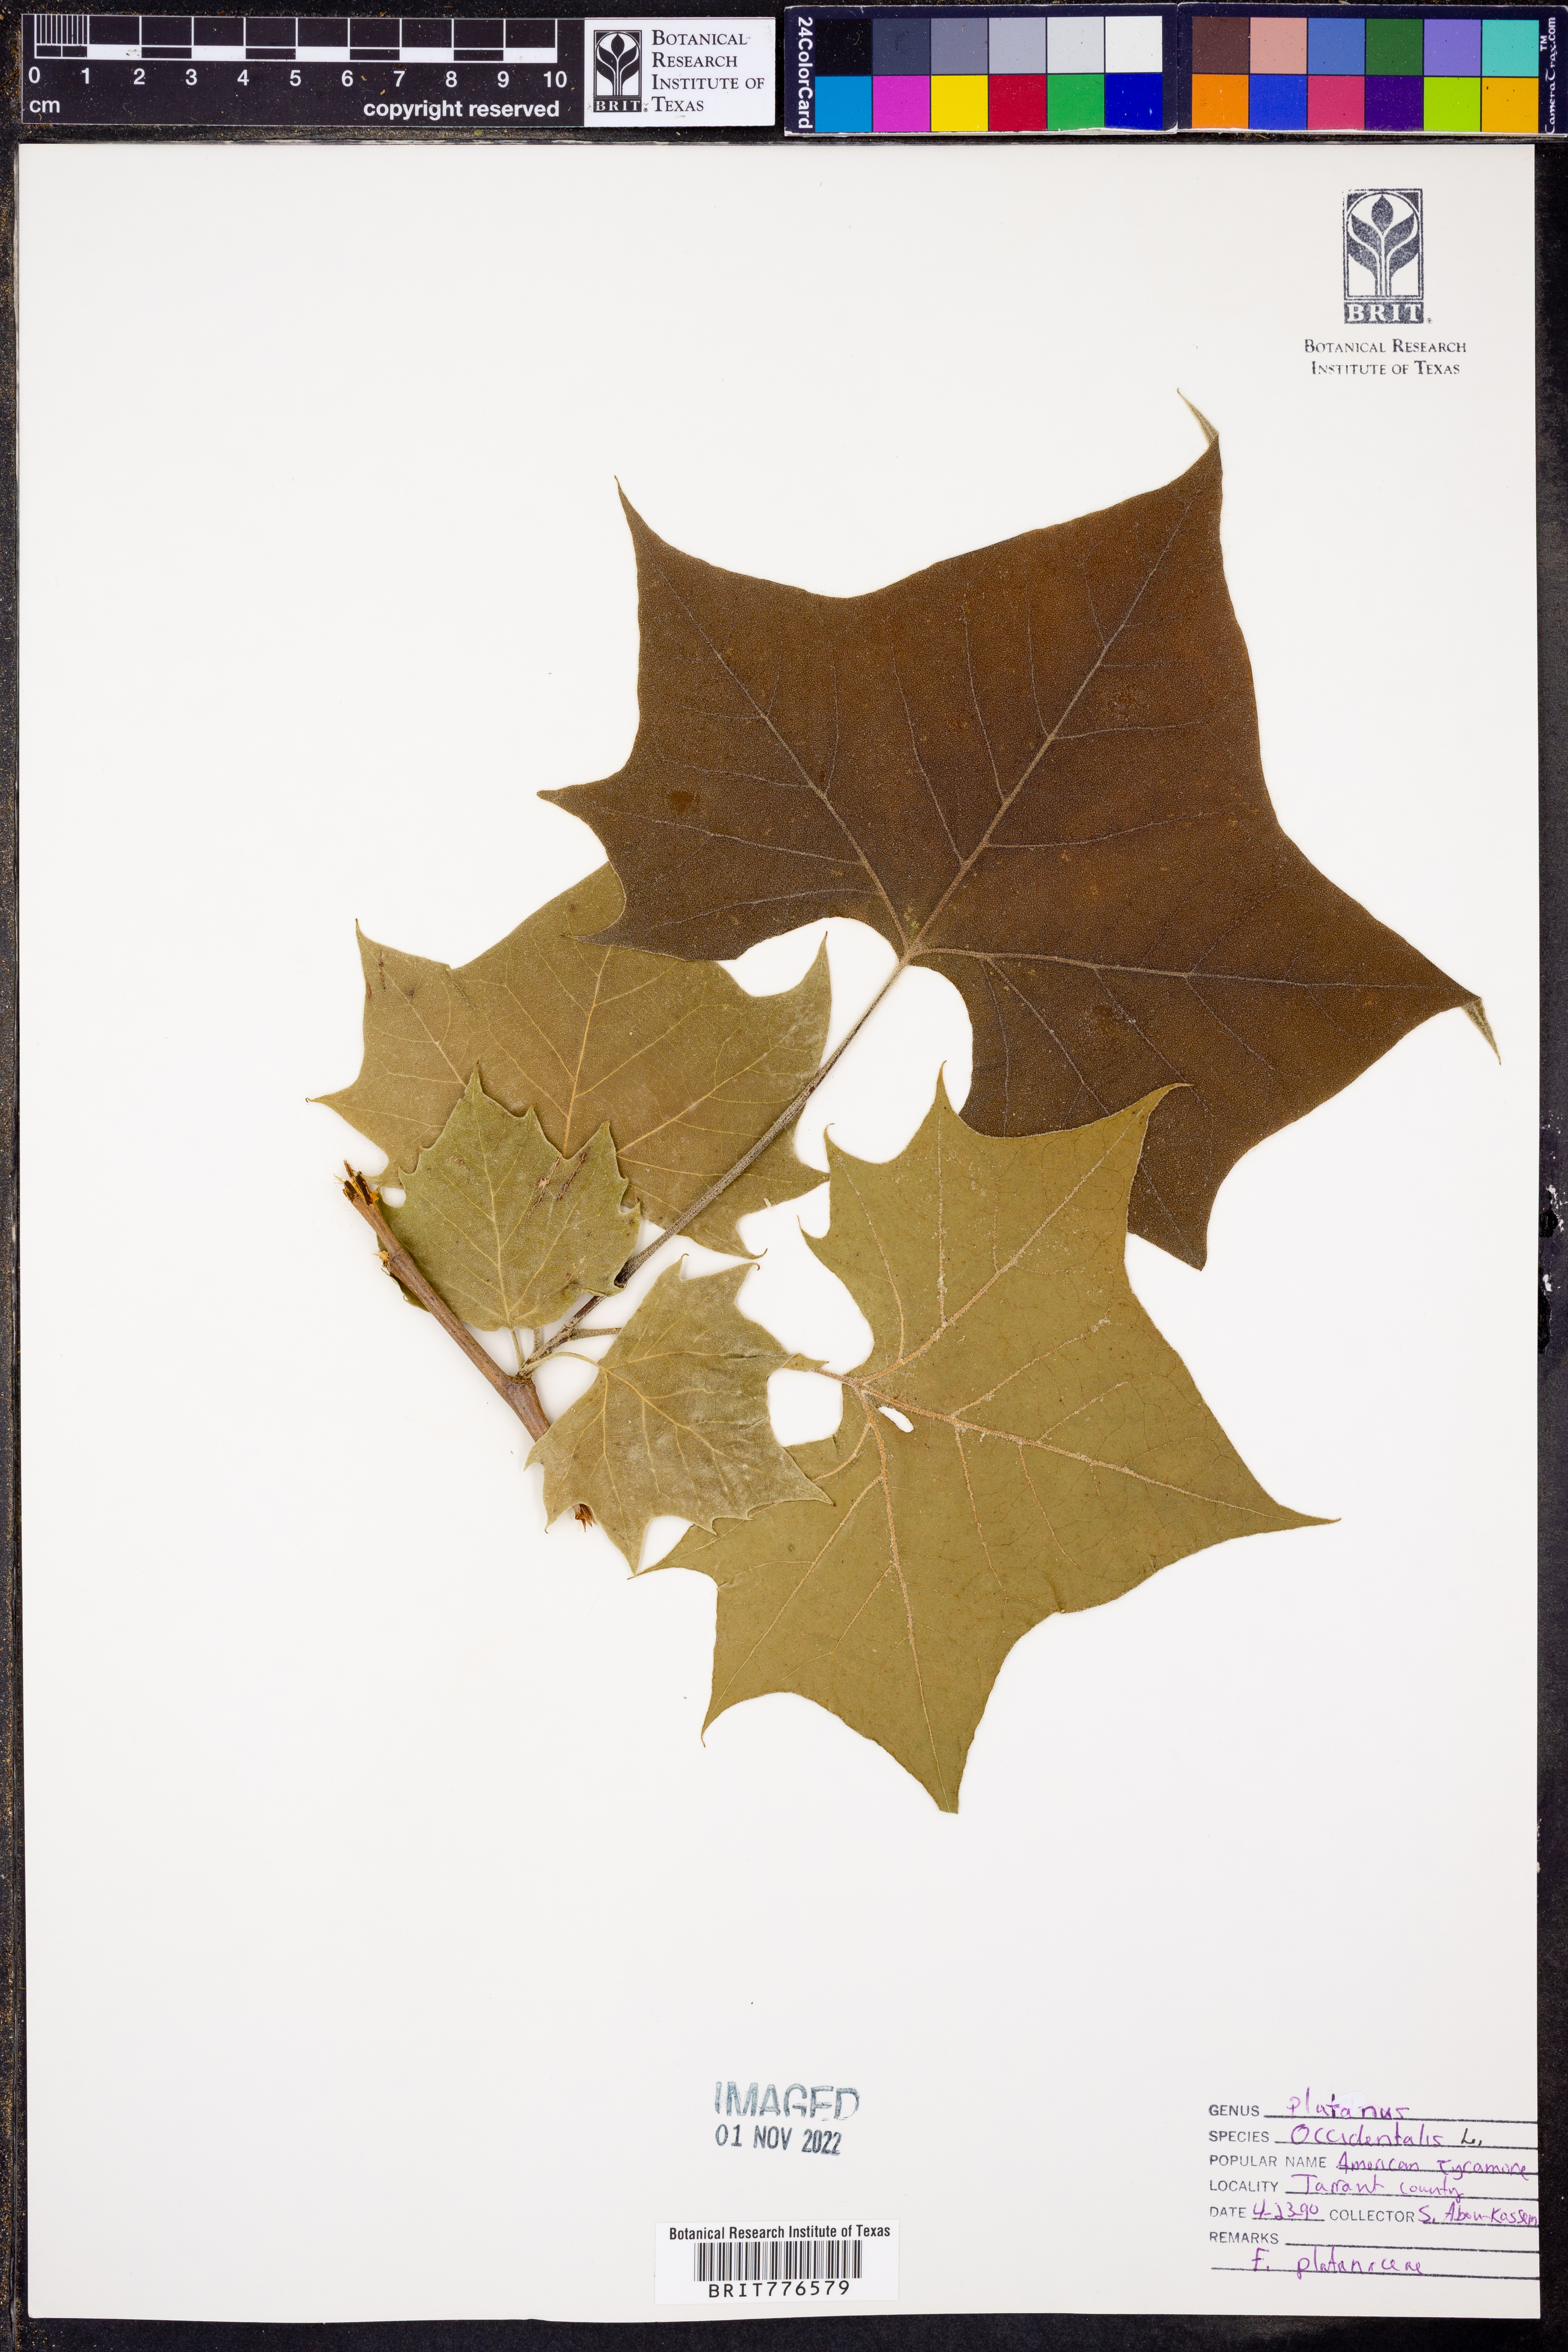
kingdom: Plantae
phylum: Tracheophyta
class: Magnoliopsida
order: Proteales
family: Platanaceae
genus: Platanus
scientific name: Platanus occidentalis
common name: American sycamore
